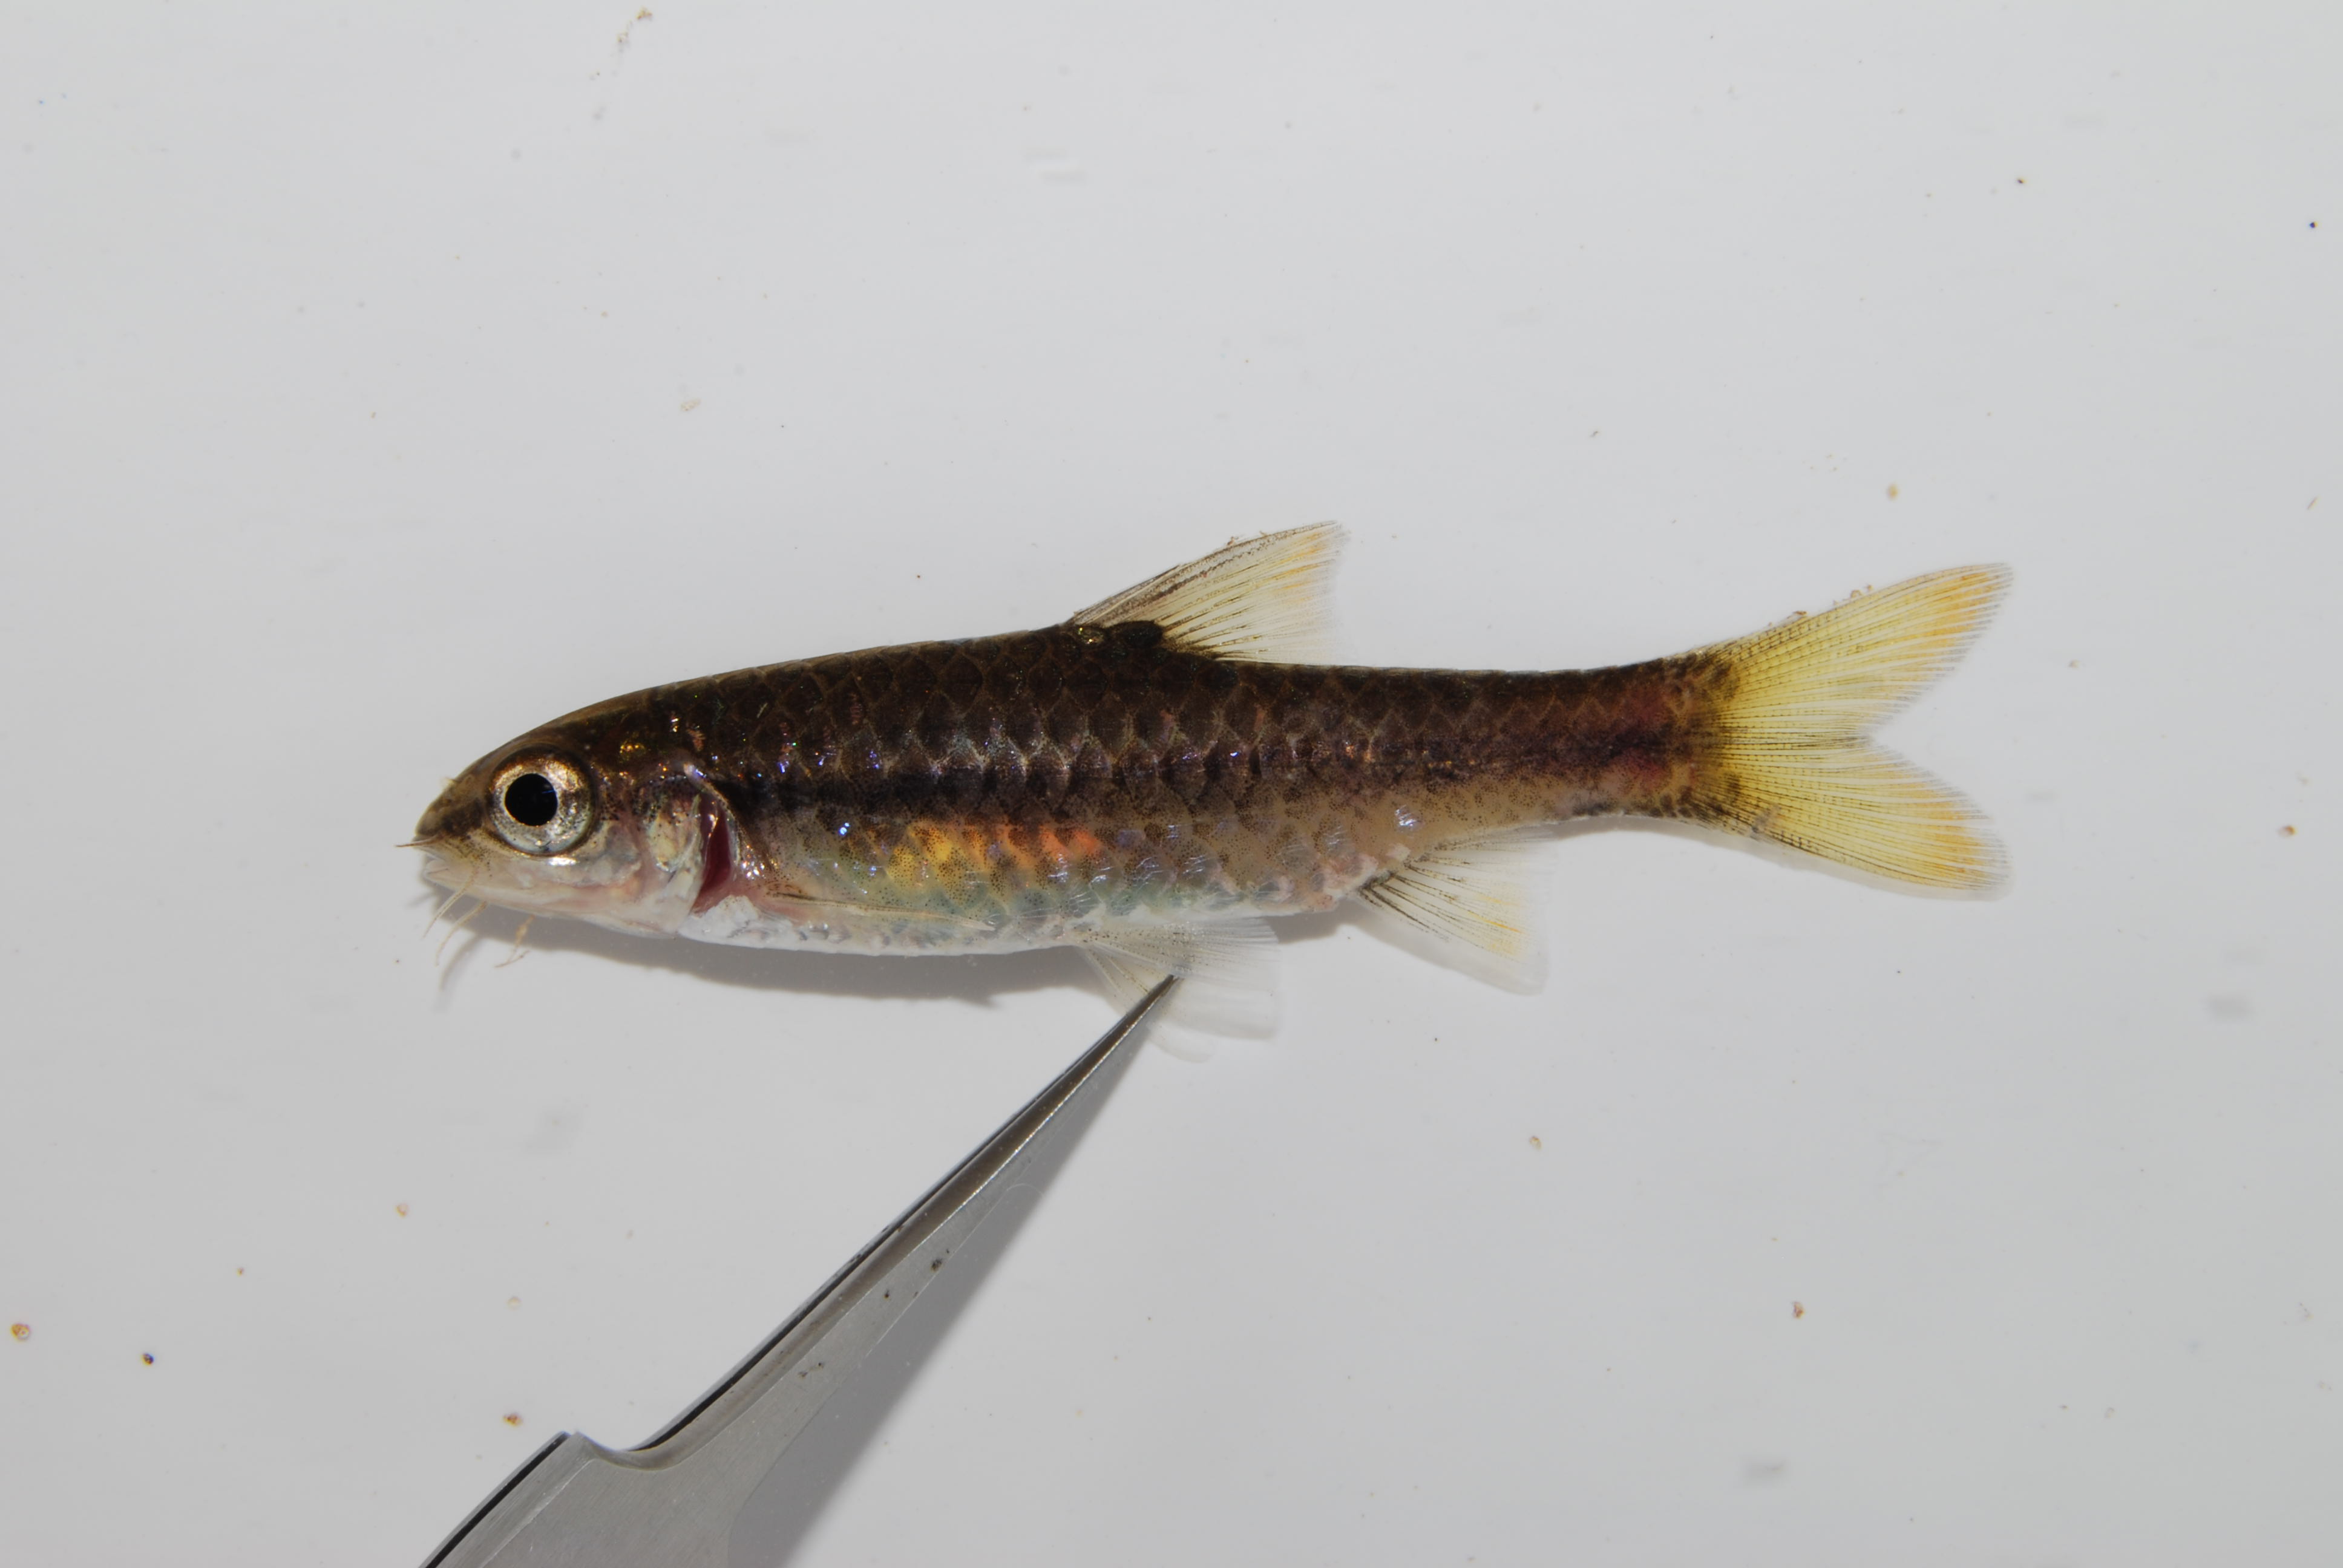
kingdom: Animalia
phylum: Chordata
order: Cypriniformes
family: Cyprinidae
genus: Enteromius
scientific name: Enteromius eutaenia
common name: Orangefin barb
